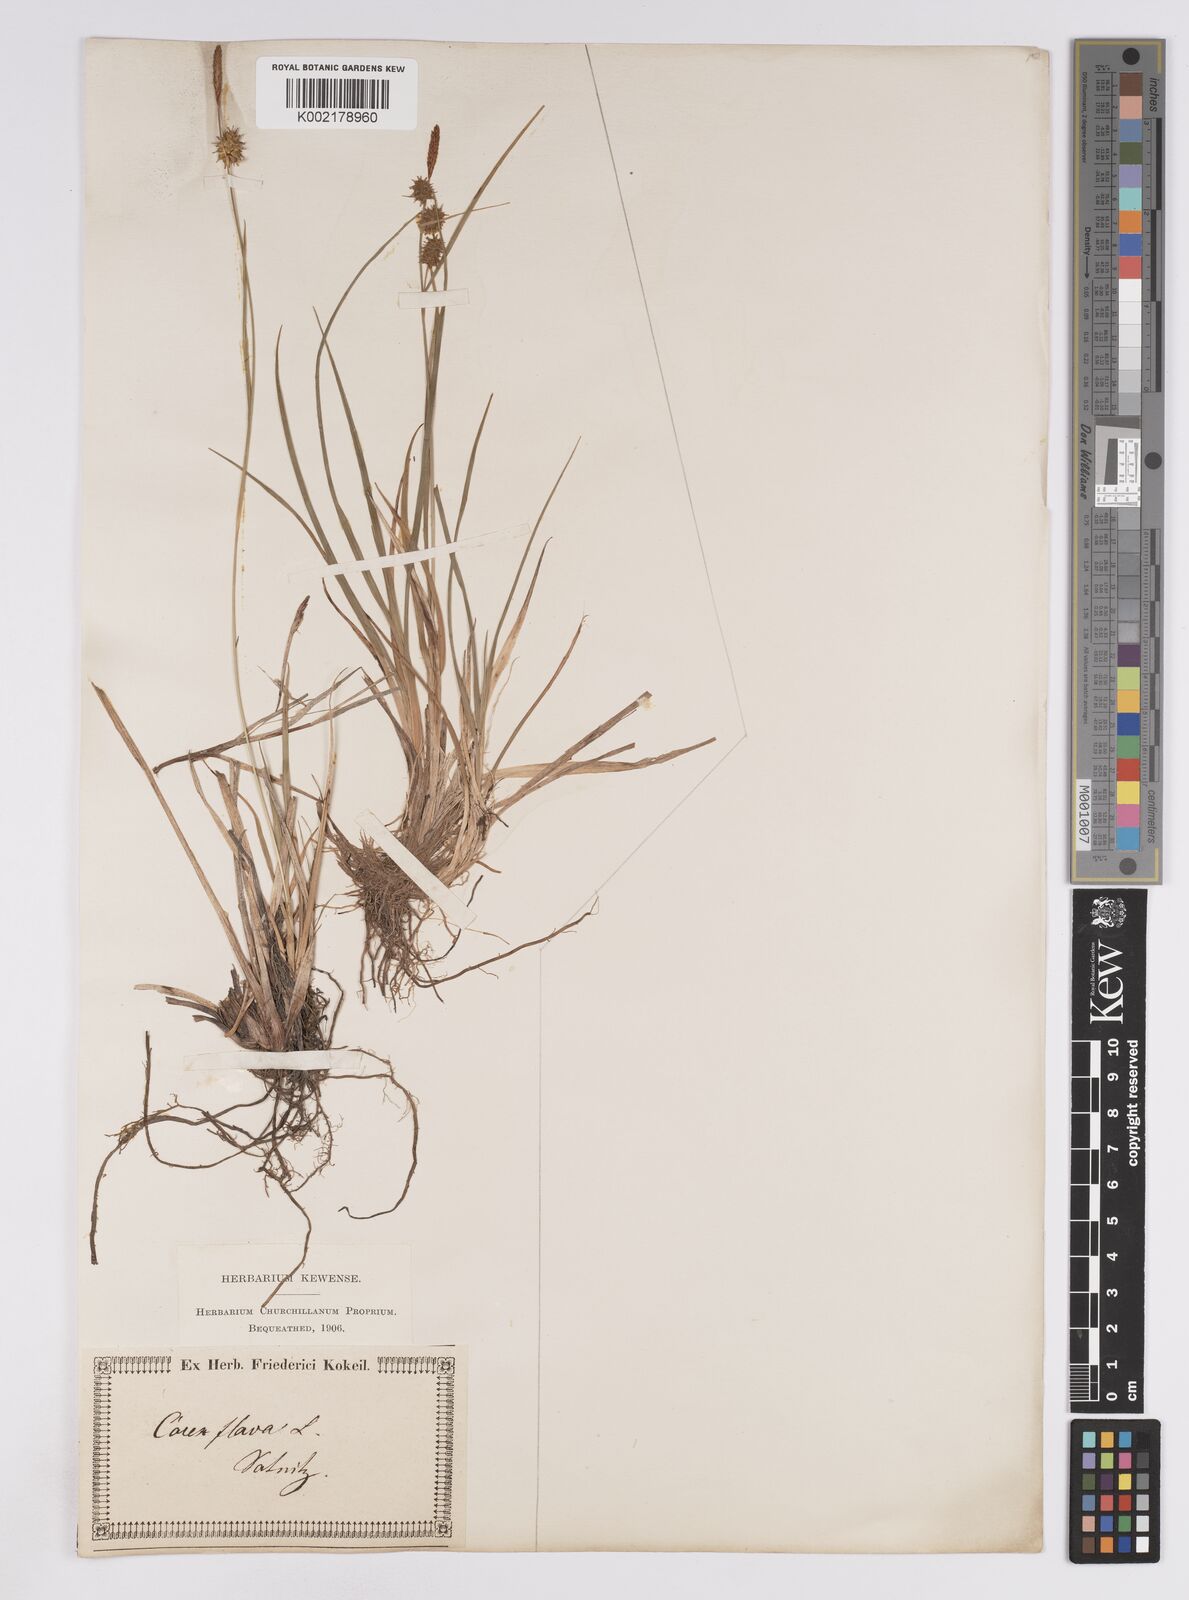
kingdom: Plantae
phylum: Tracheophyta
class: Liliopsida
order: Poales
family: Cyperaceae
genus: Carex
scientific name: Carex lepidocarpa
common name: Long-stalked yellow-sedge
